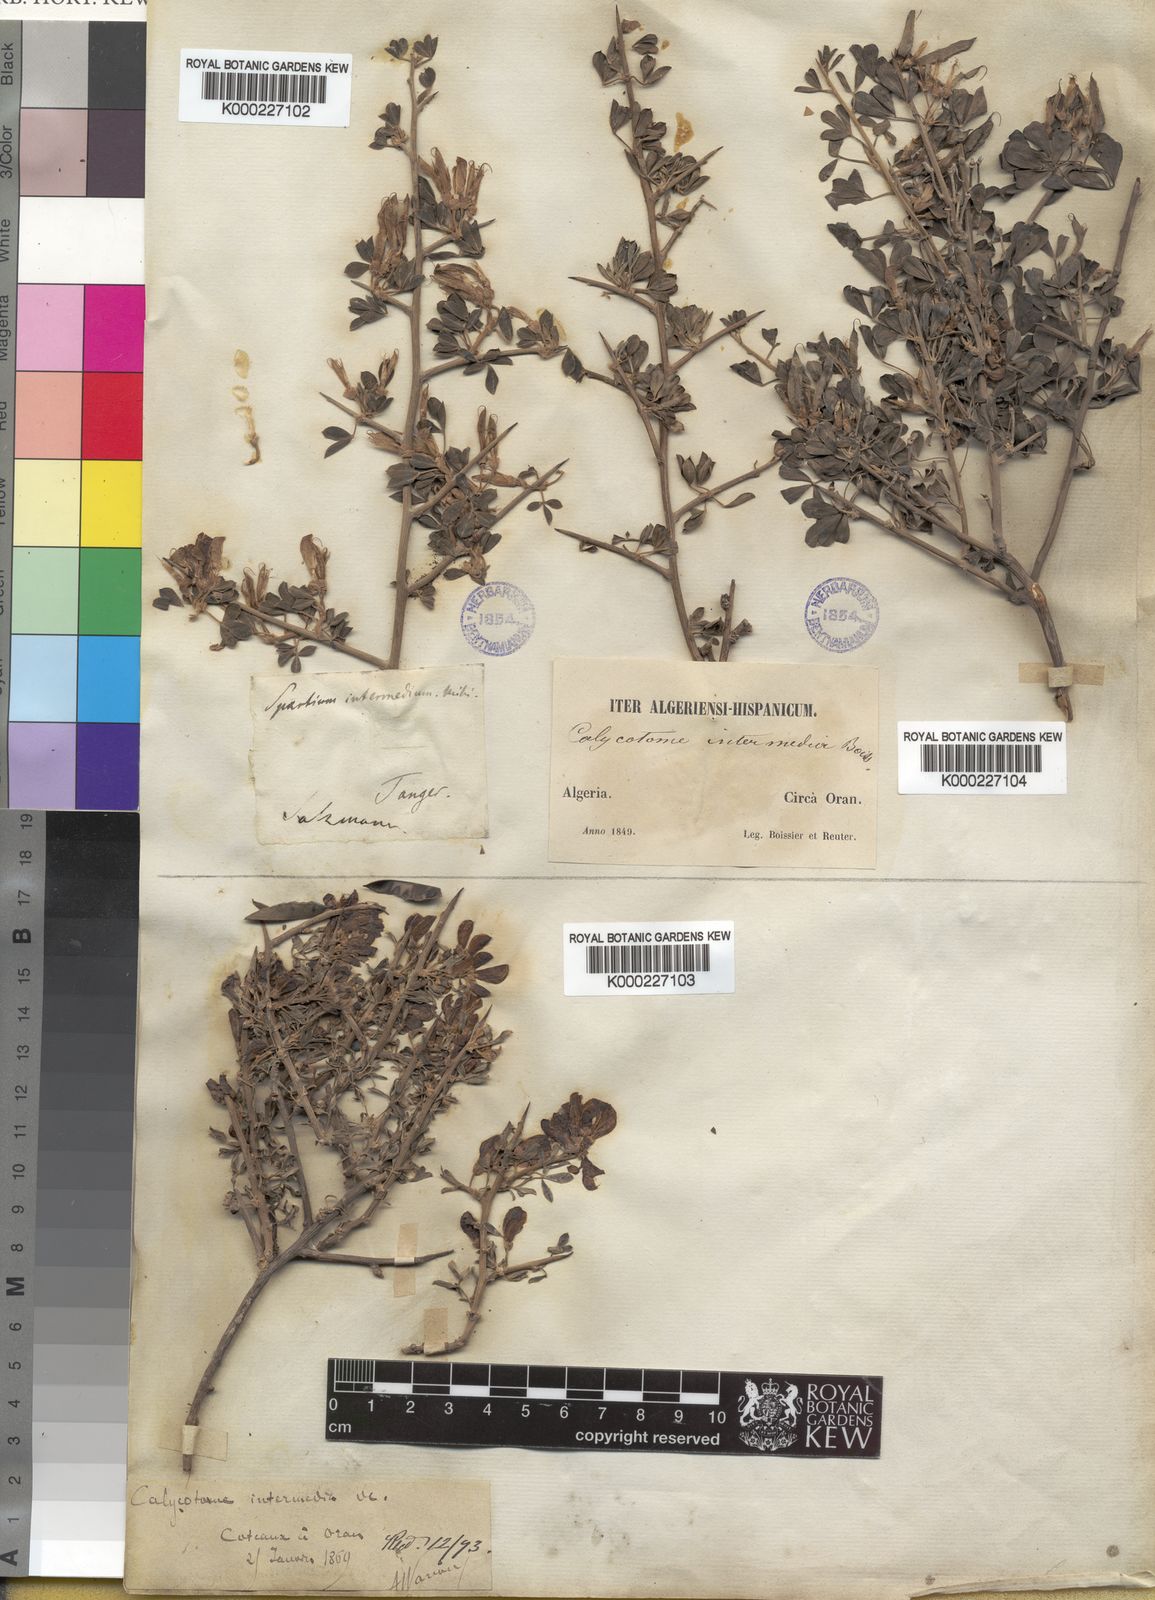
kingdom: Plantae
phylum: Tracheophyta
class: Magnoliopsida
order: Fabales
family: Fabaceae
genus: Calicotome
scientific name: Calicotome villosa
